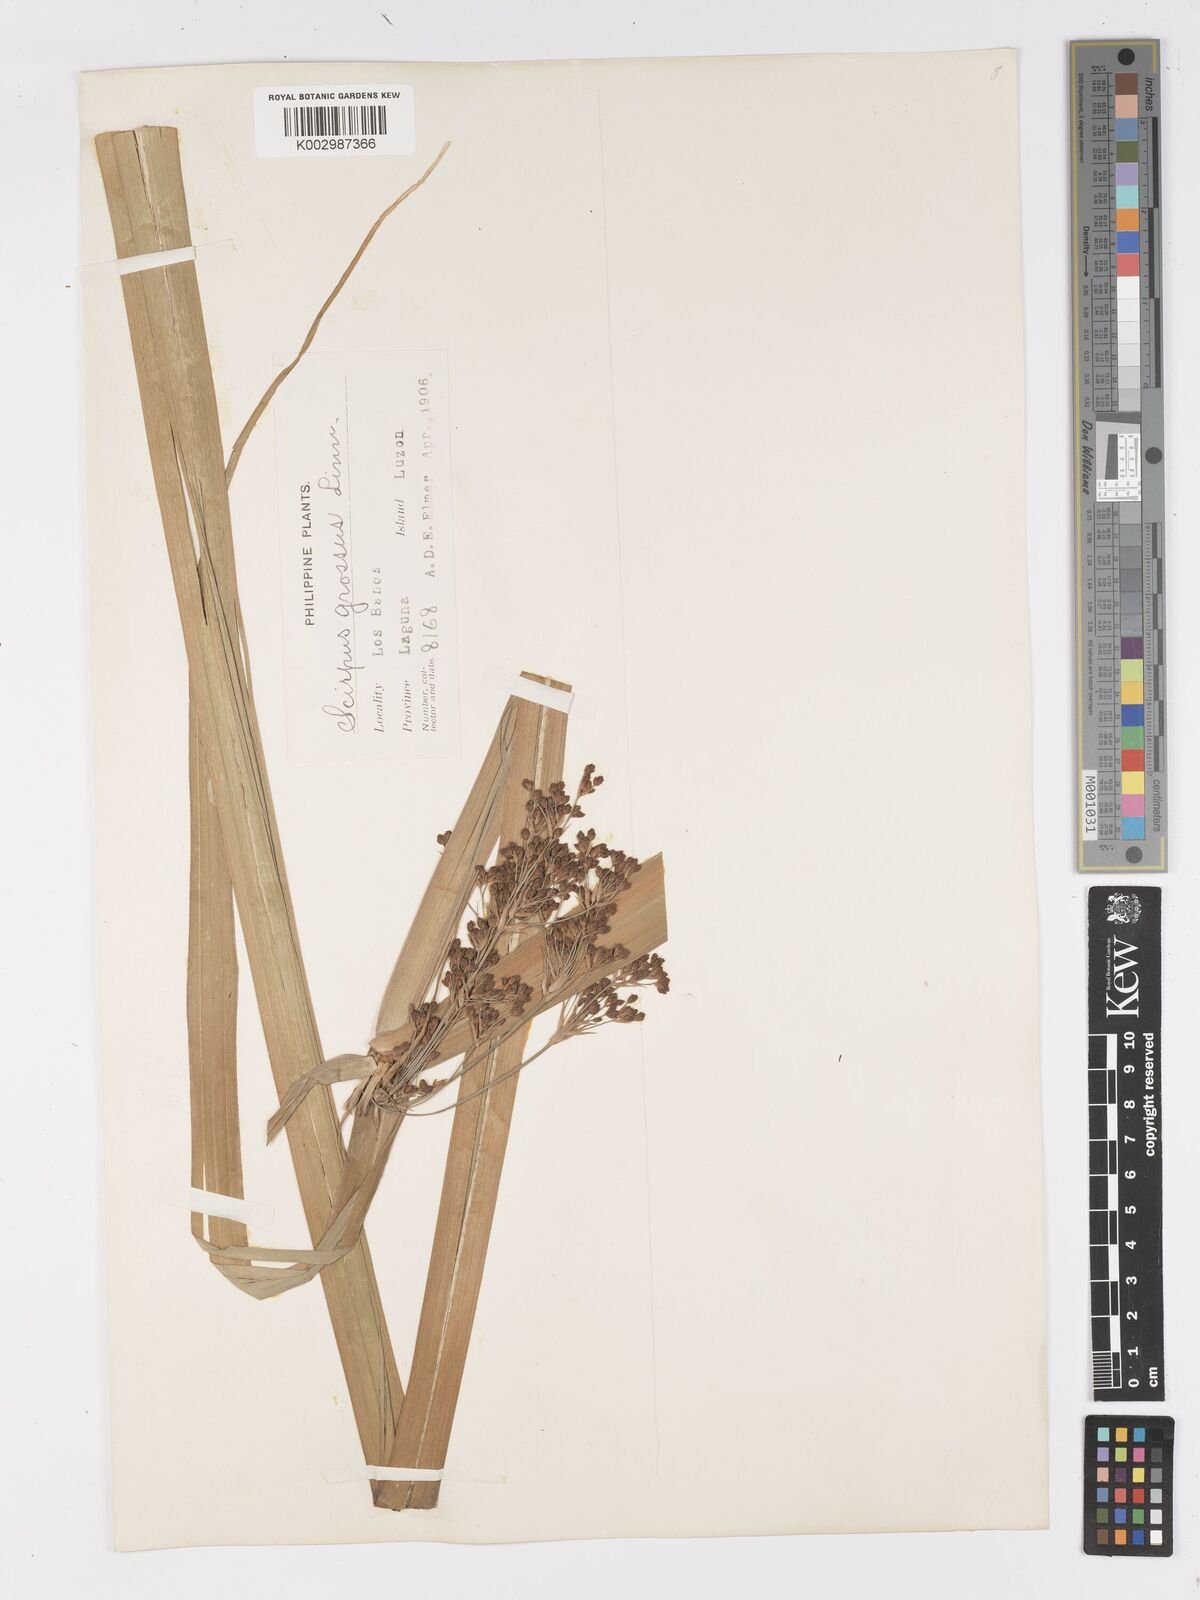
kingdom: Plantae
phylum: Tracheophyta
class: Liliopsida
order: Poales
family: Cyperaceae
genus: Actinoscirpus
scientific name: Actinoscirpus grossus
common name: Giant bur rush
